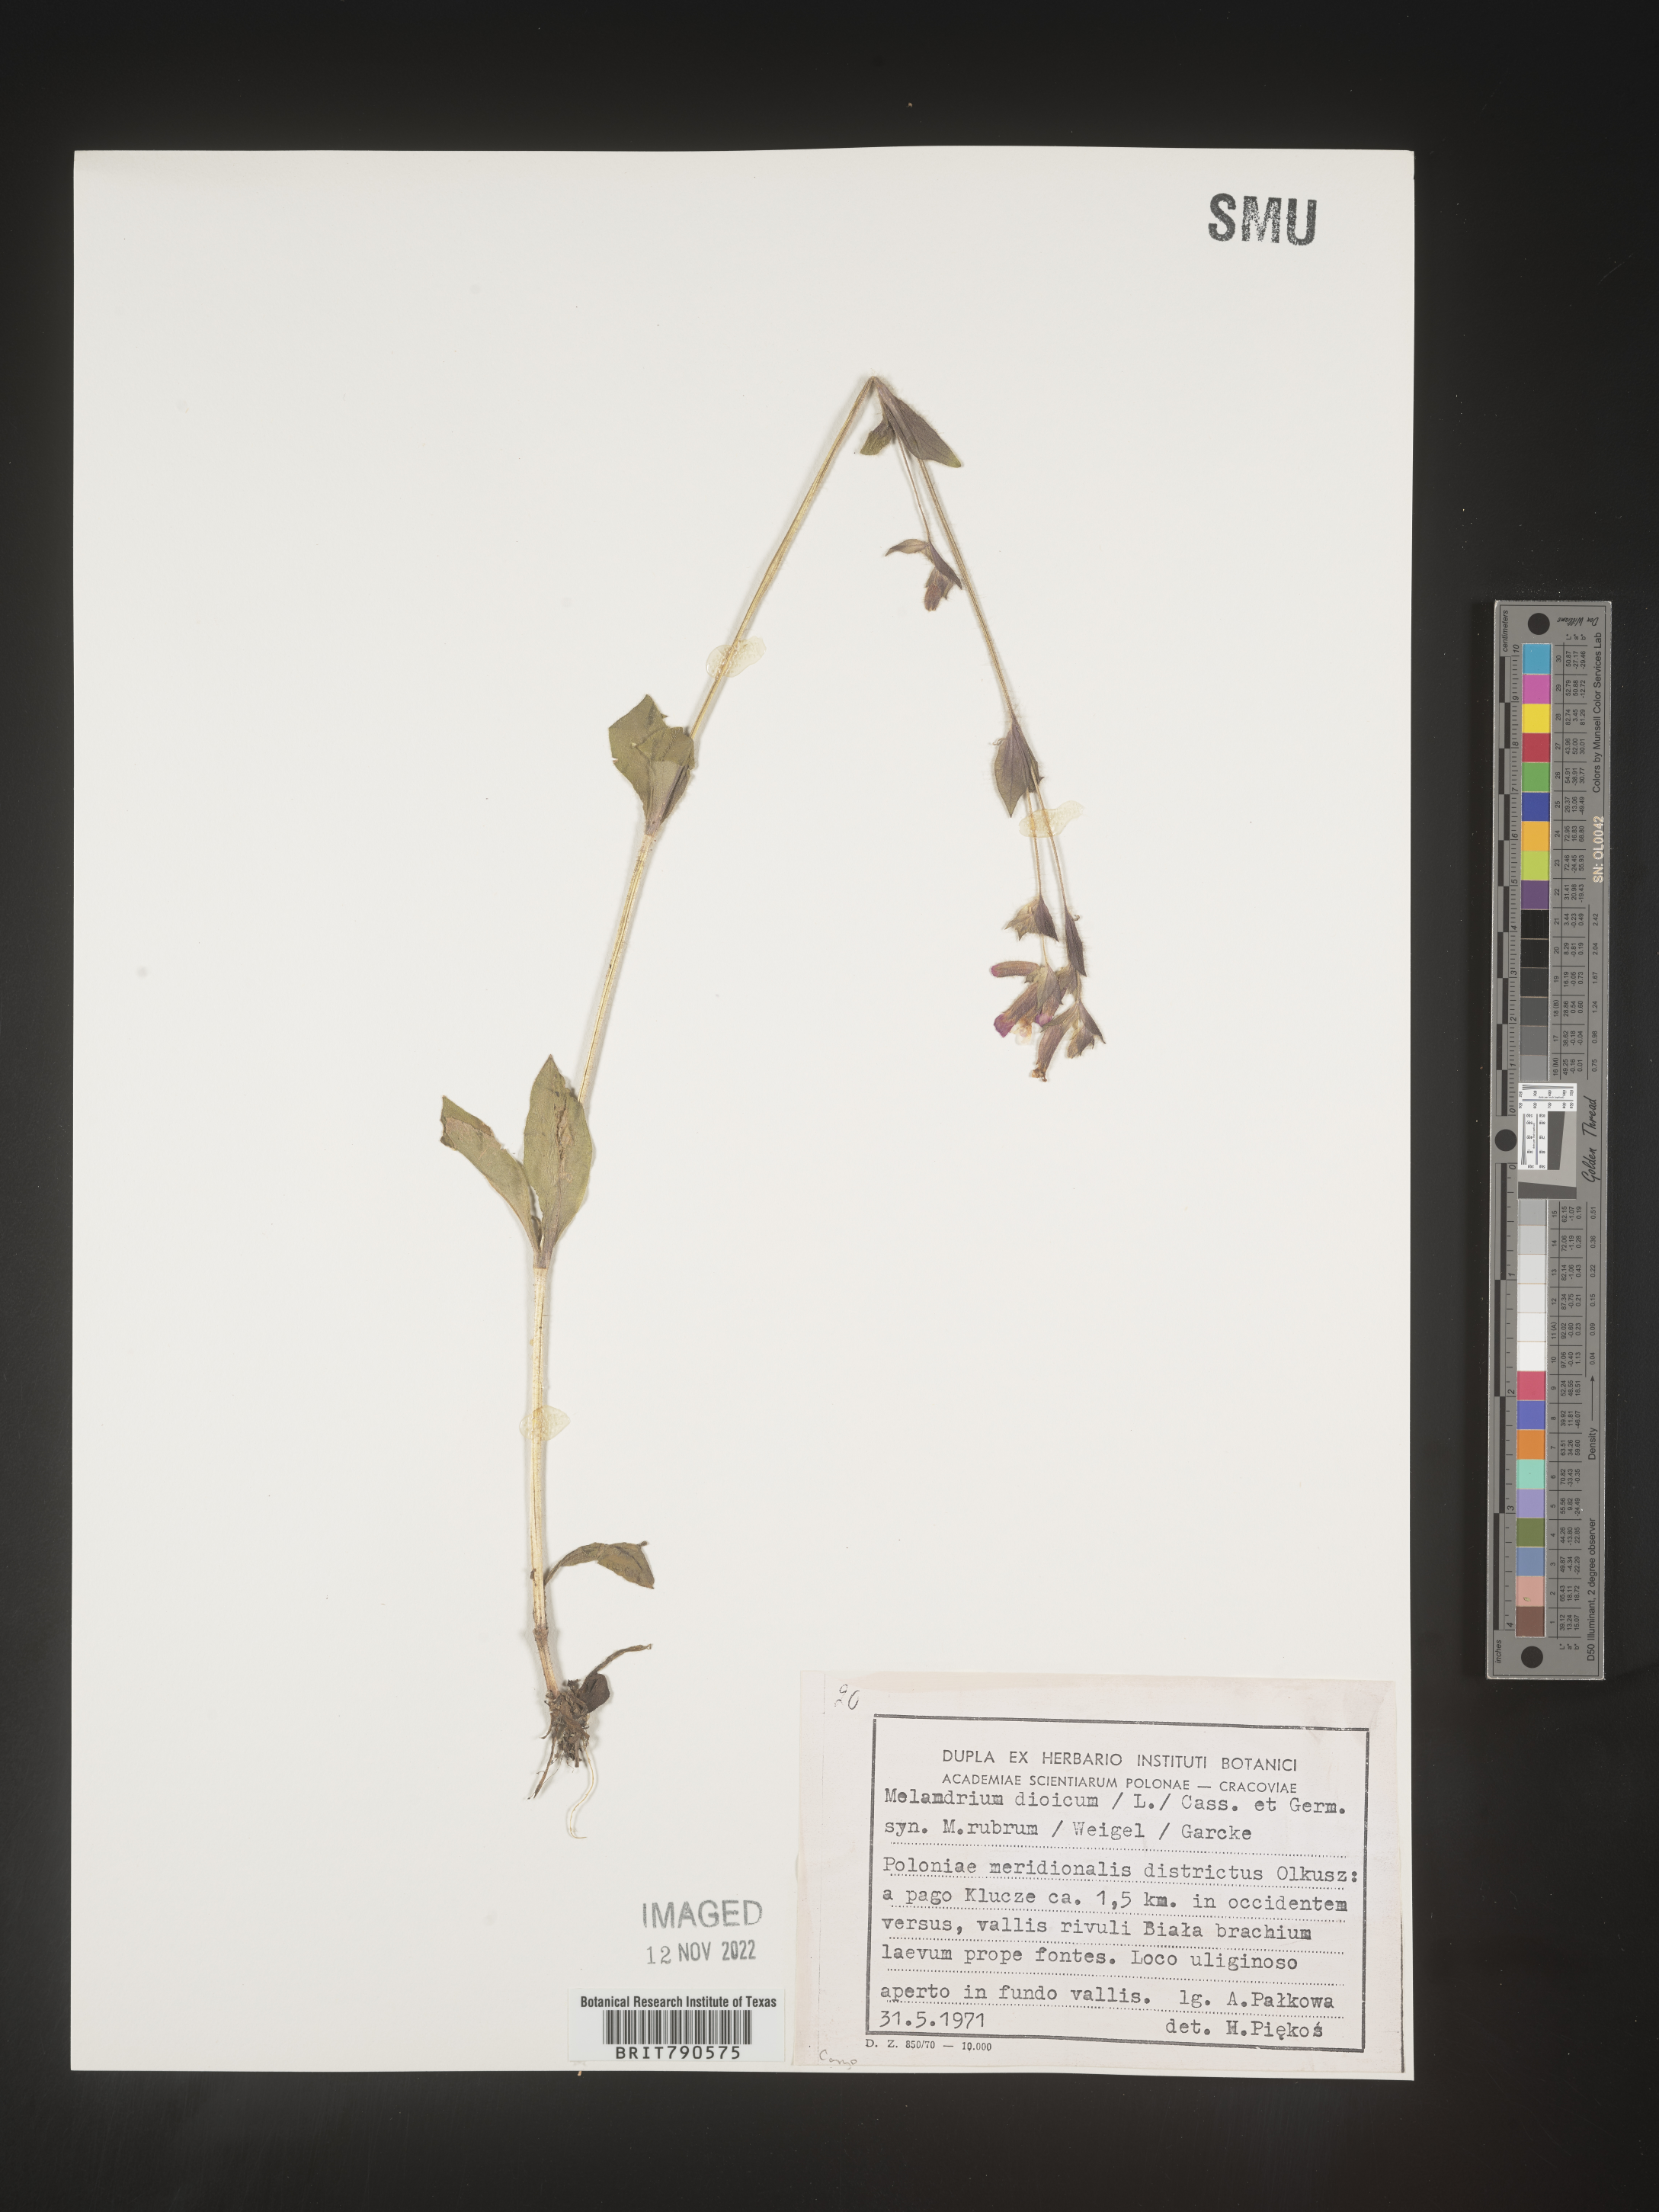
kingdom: Plantae
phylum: Tracheophyta
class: Magnoliopsida
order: Caryophyllales
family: Caryophyllaceae
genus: Silene
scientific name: Silene
